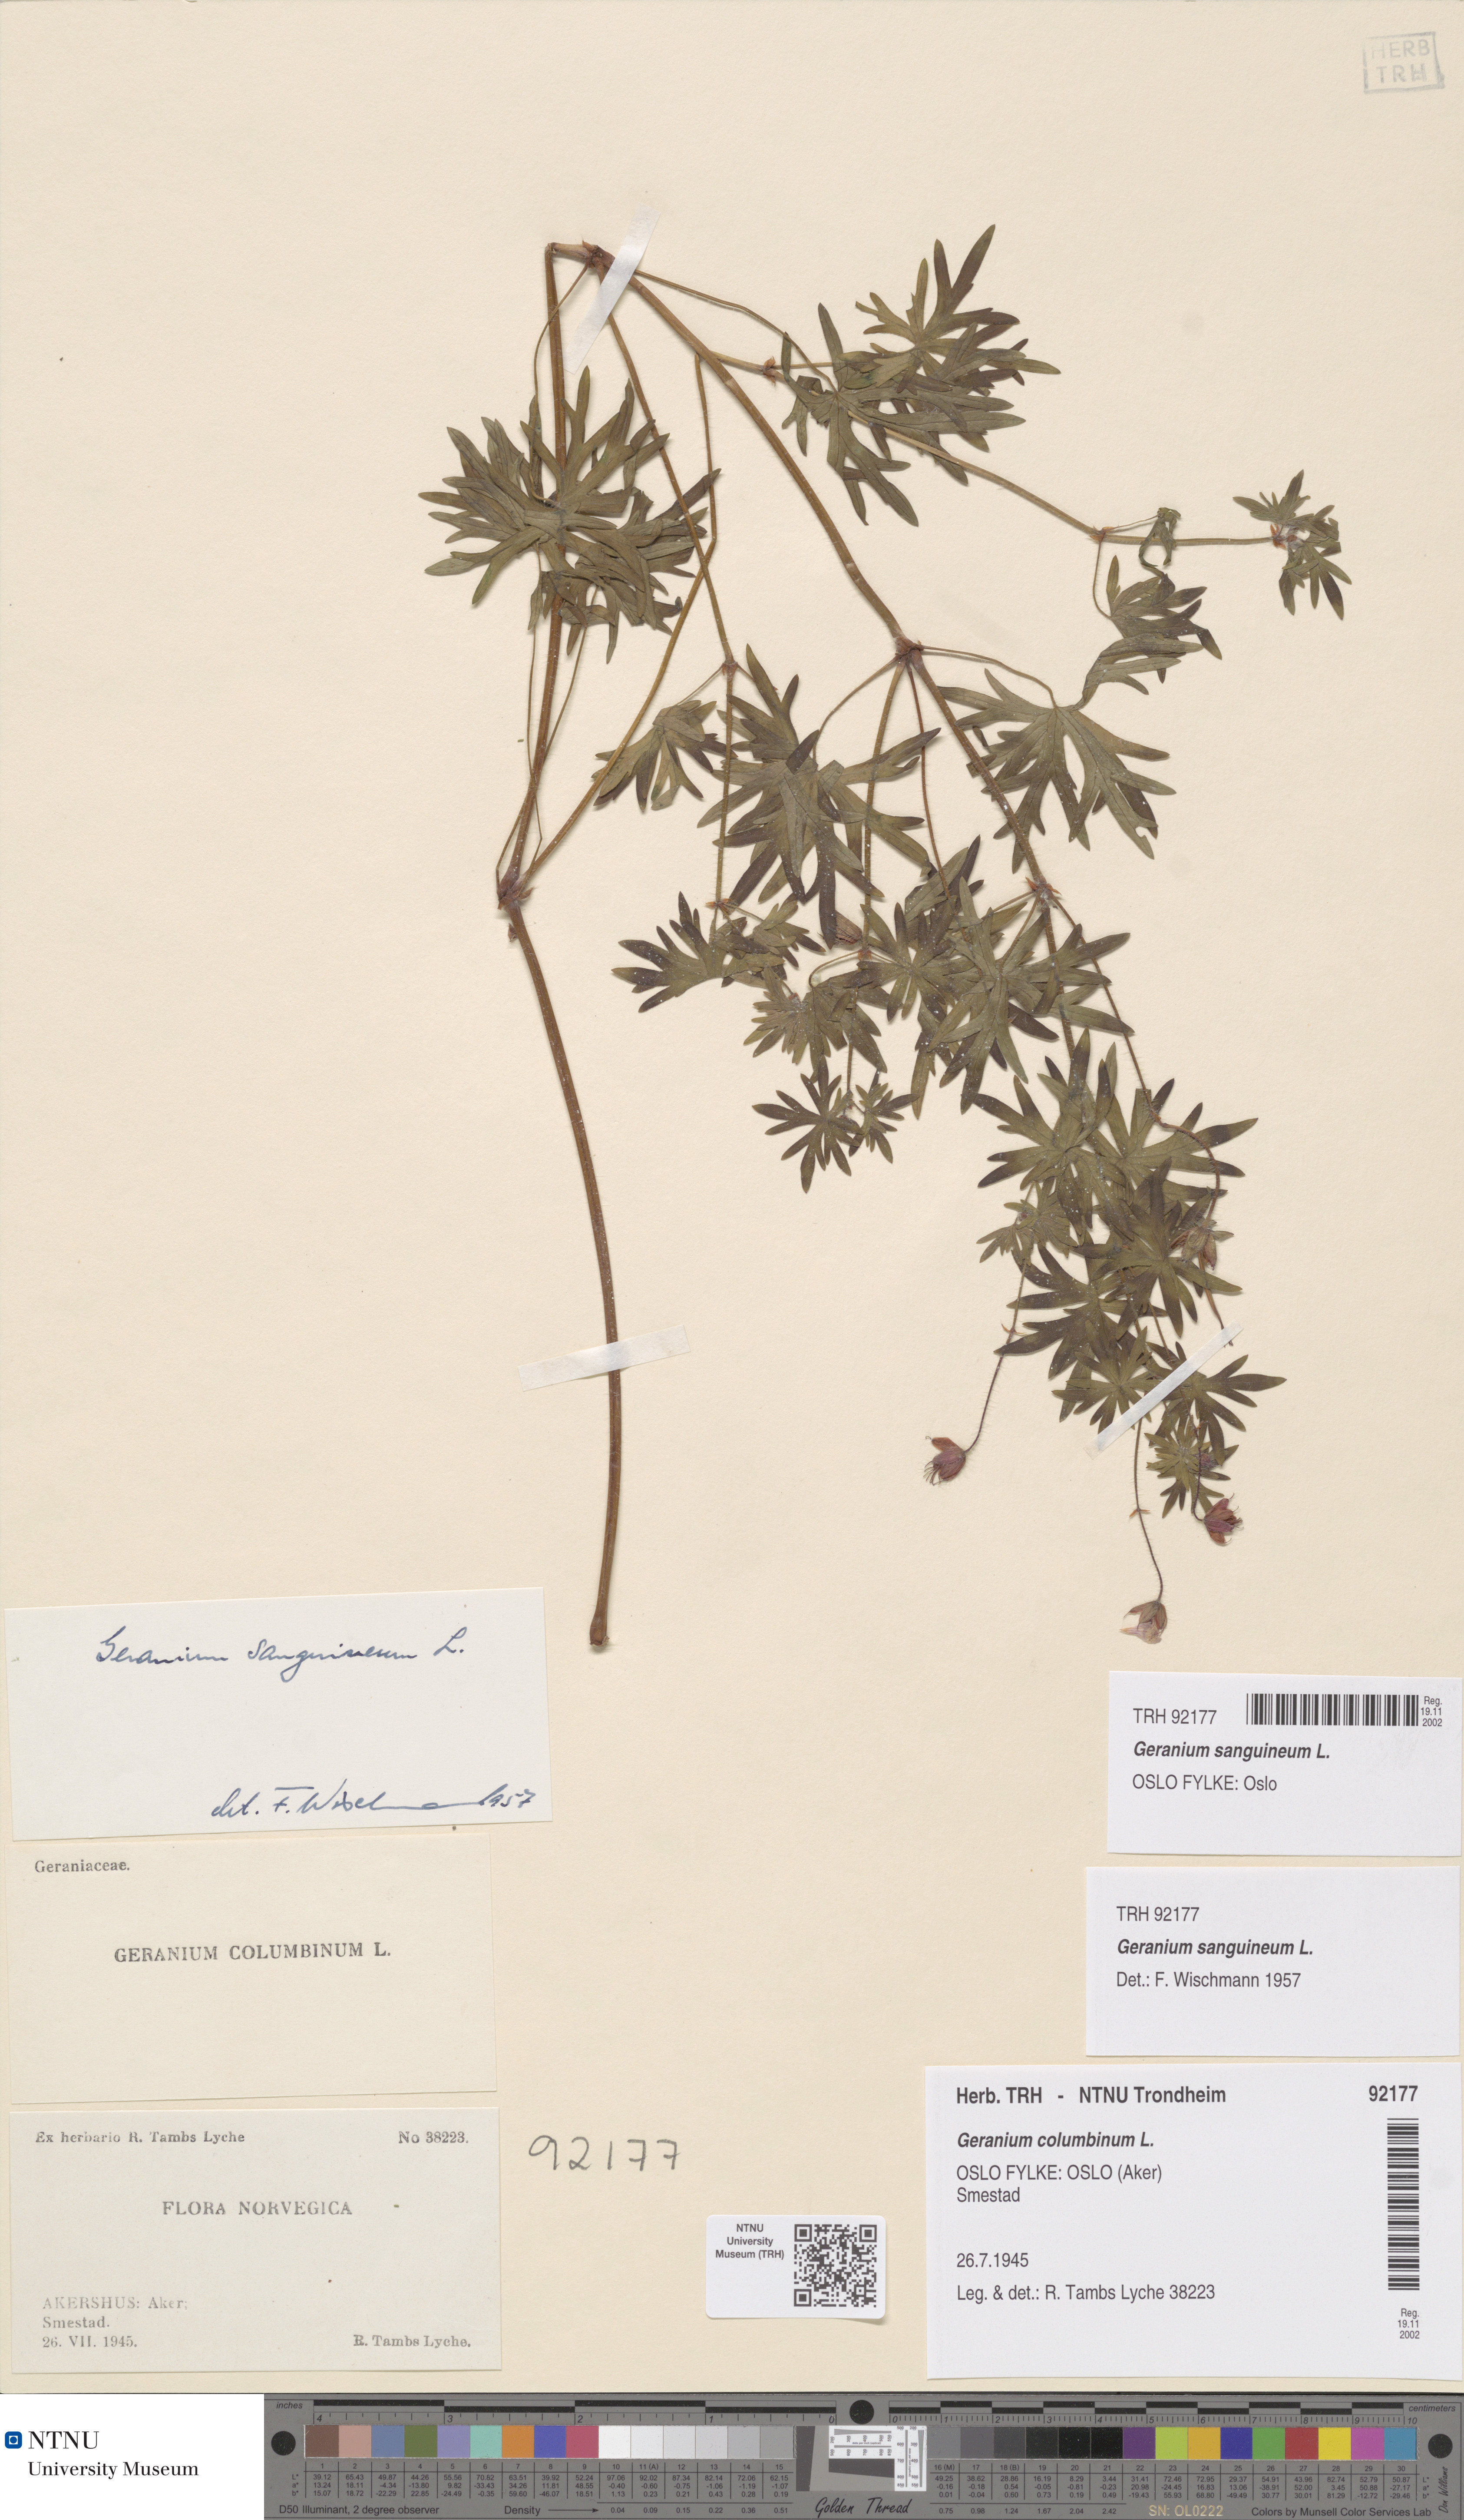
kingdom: Plantae
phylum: Tracheophyta
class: Magnoliopsida
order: Geraniales
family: Geraniaceae
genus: Geranium
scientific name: Geranium sanguineum
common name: Bloody crane's-bill
